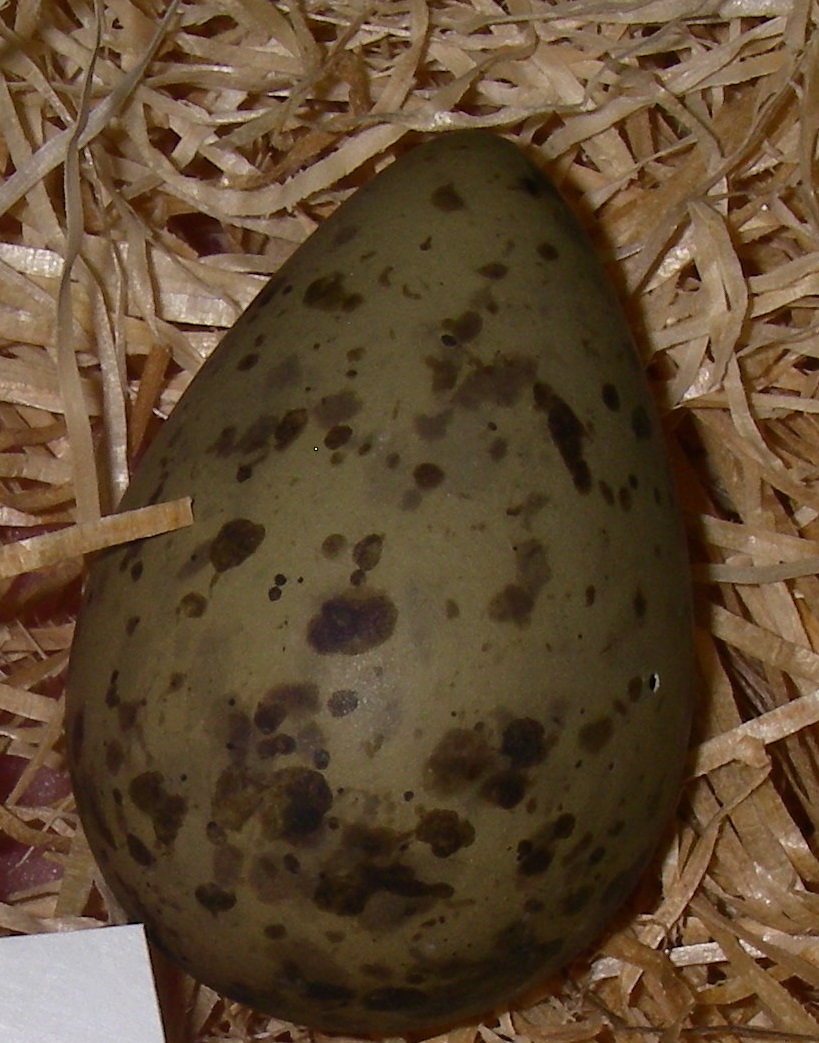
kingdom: Animalia
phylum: Chordata
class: Aves
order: Charadriiformes
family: Scolopacidae
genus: Numenius
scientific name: Numenius arquata
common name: Eurasian curlew
